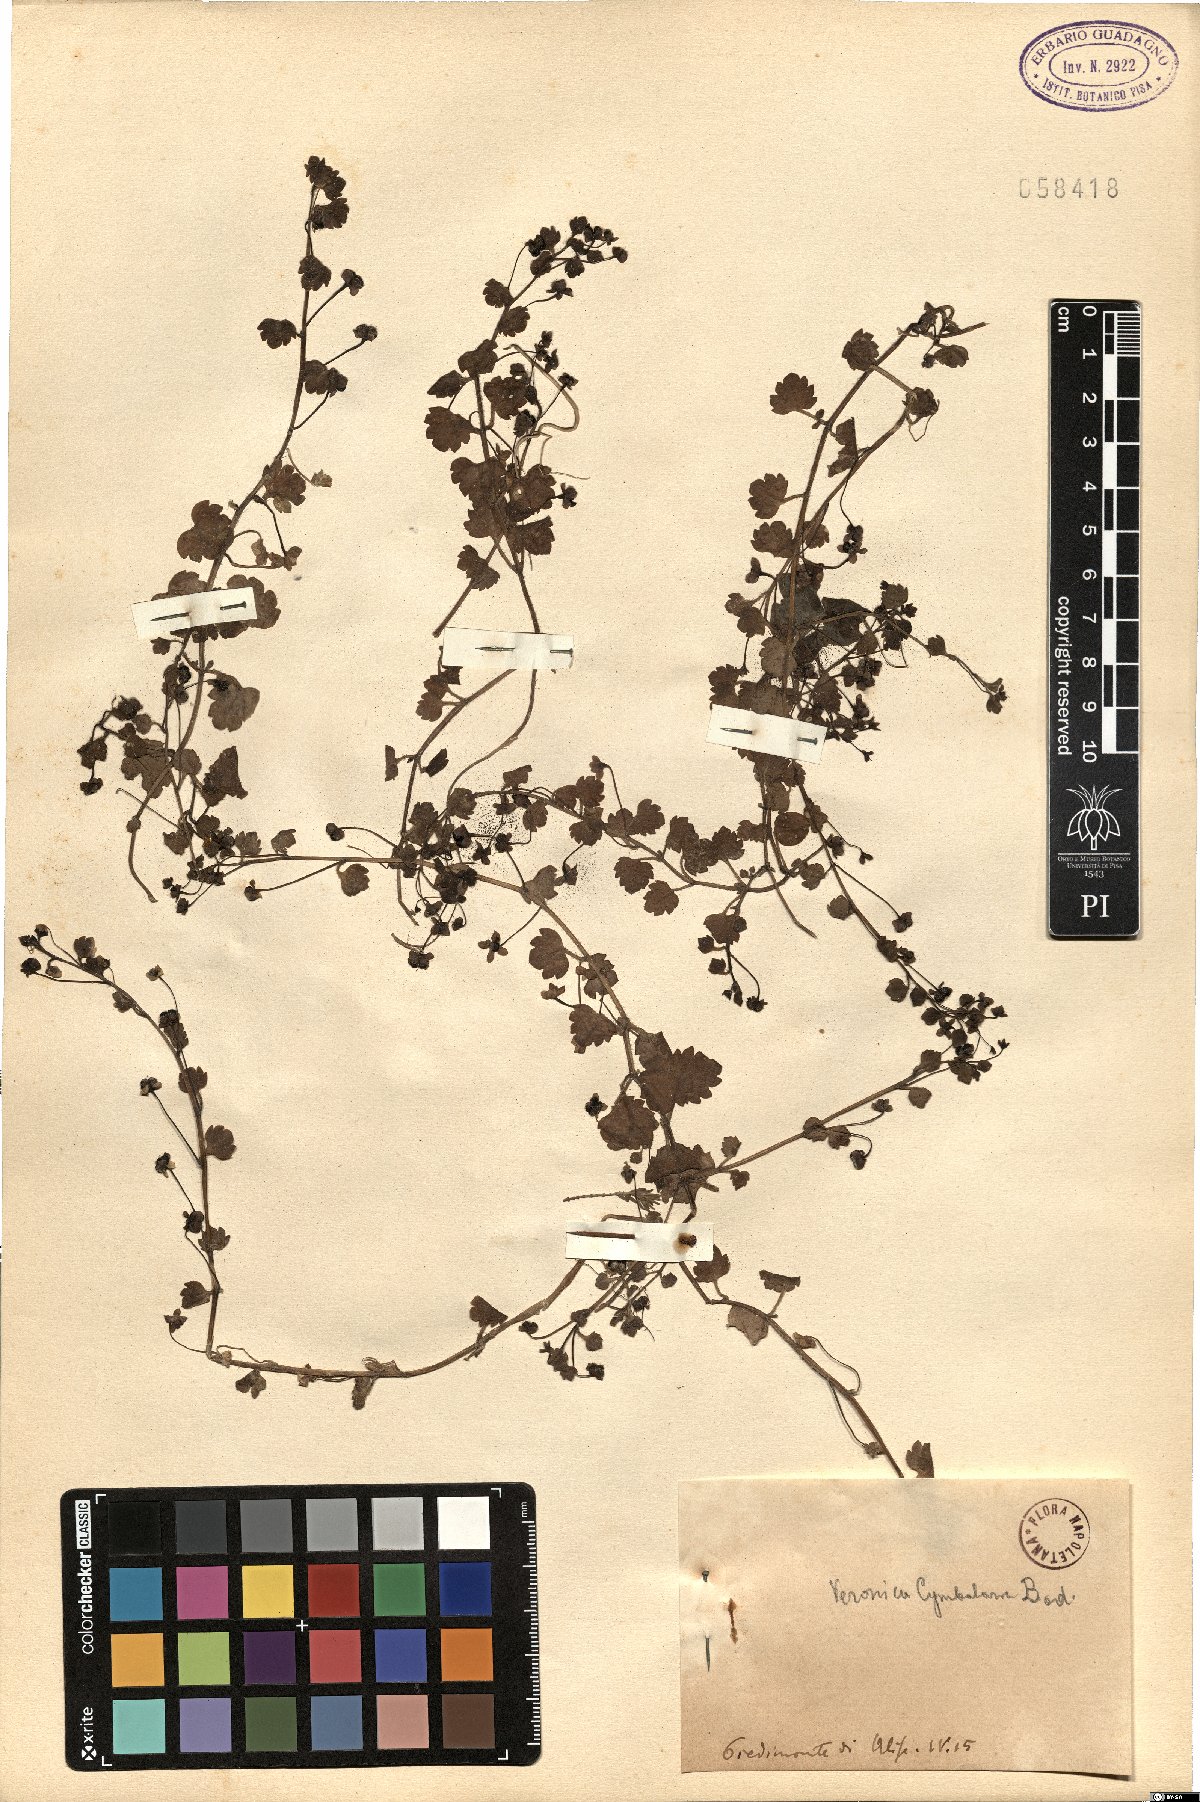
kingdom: Plantae
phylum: Tracheophyta
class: Magnoliopsida
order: Lamiales
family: Plantaginaceae
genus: Veronica
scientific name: Veronica cymbalaria
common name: Pale speedwell
